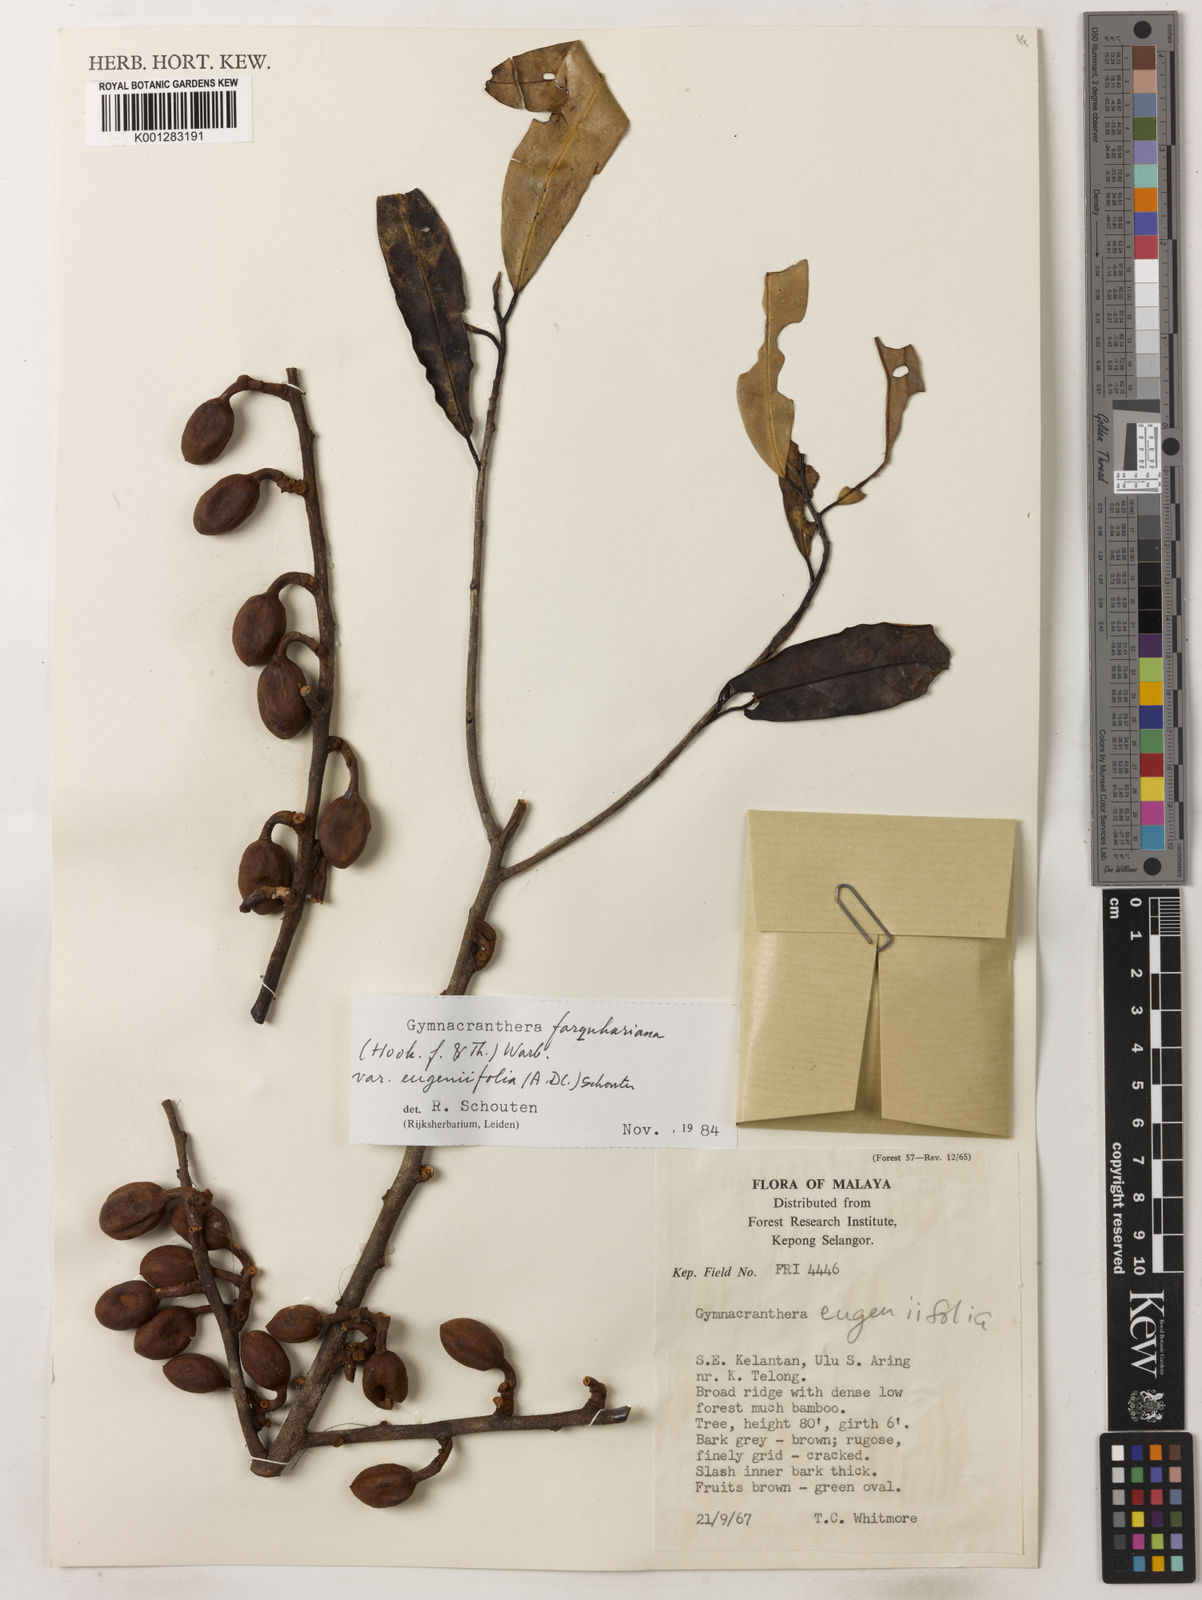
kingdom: Plantae
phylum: Tracheophyta
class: Magnoliopsida
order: Magnoliales
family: Myristicaceae
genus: Gymnacranthera
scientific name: Gymnacranthera farquhariana
